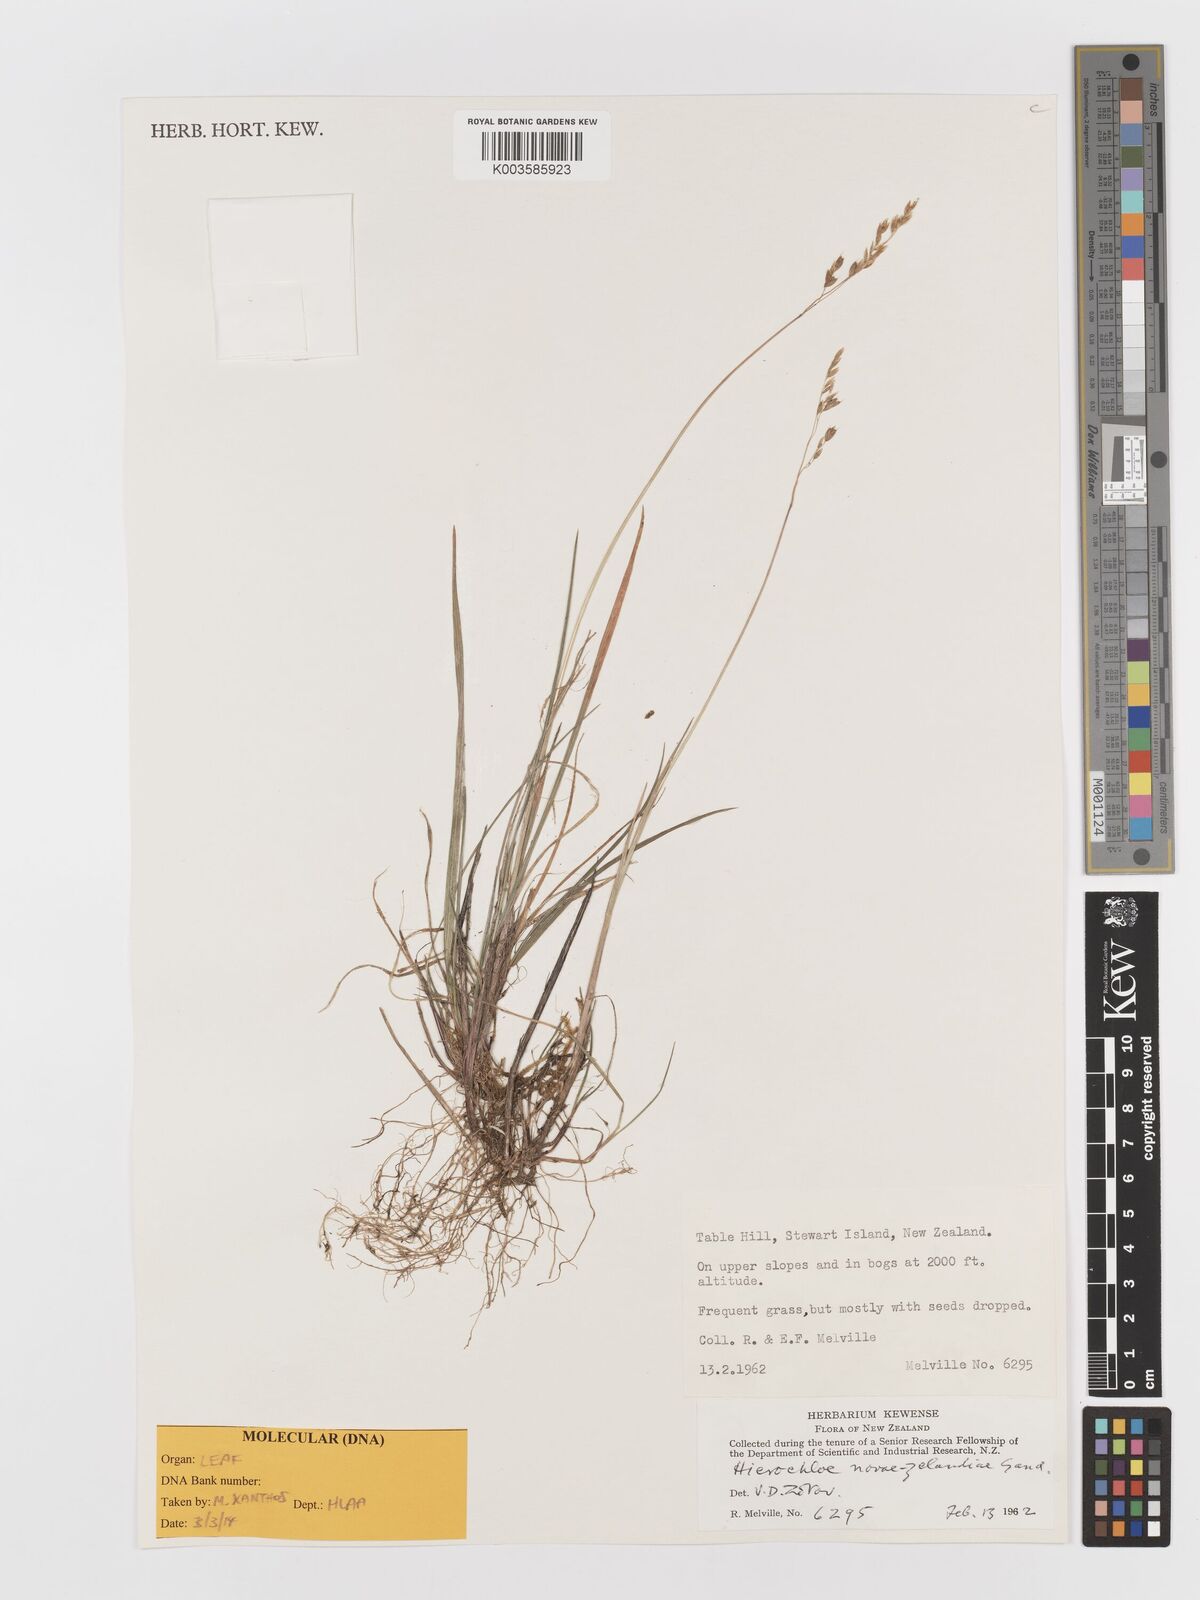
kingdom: Plantae
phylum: Tracheophyta
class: Liliopsida
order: Poales
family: Poaceae
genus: Anthoxanthum
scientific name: Anthoxanthum novae-zelandiae
